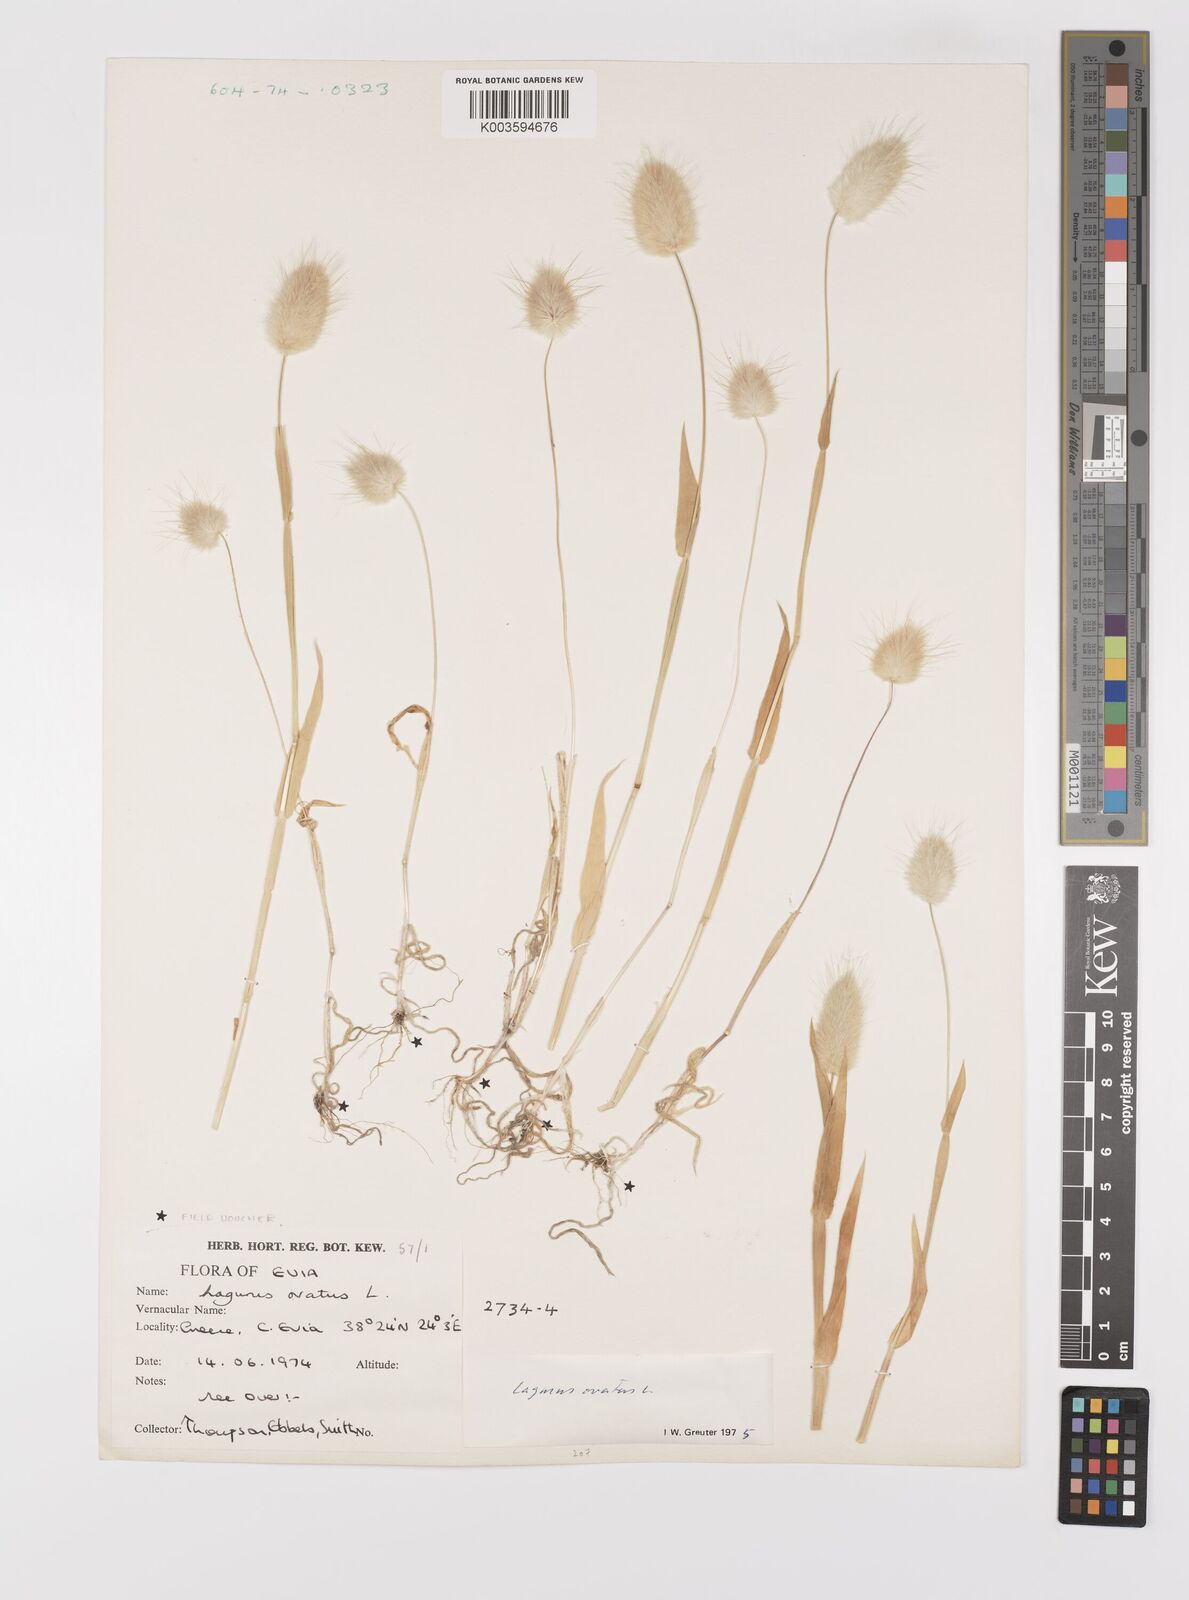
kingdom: Plantae
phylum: Tracheophyta
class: Liliopsida
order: Poales
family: Poaceae
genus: Lagurus
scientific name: Lagurus ovatus
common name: Hare's-tail
